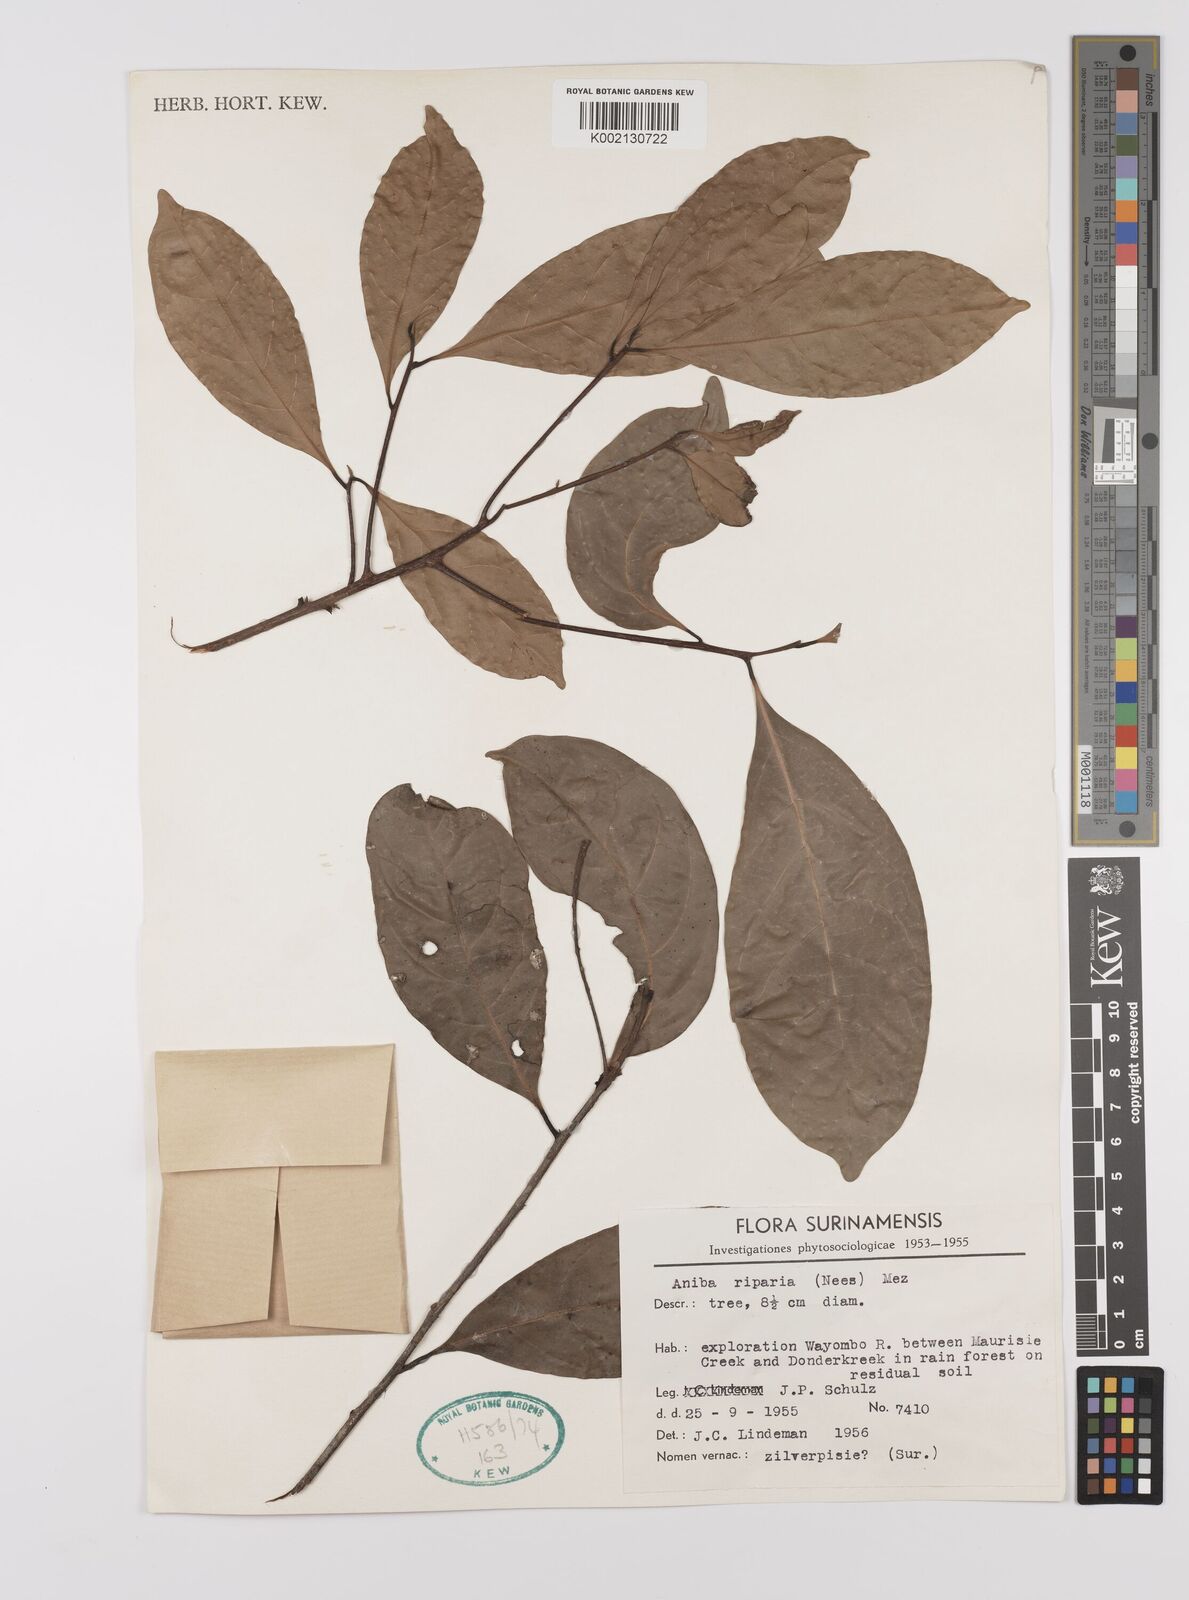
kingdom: Plantae
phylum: Tracheophyta
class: Magnoliopsida
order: Laurales
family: Lauraceae
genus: Aniba
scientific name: Aniba riparia
